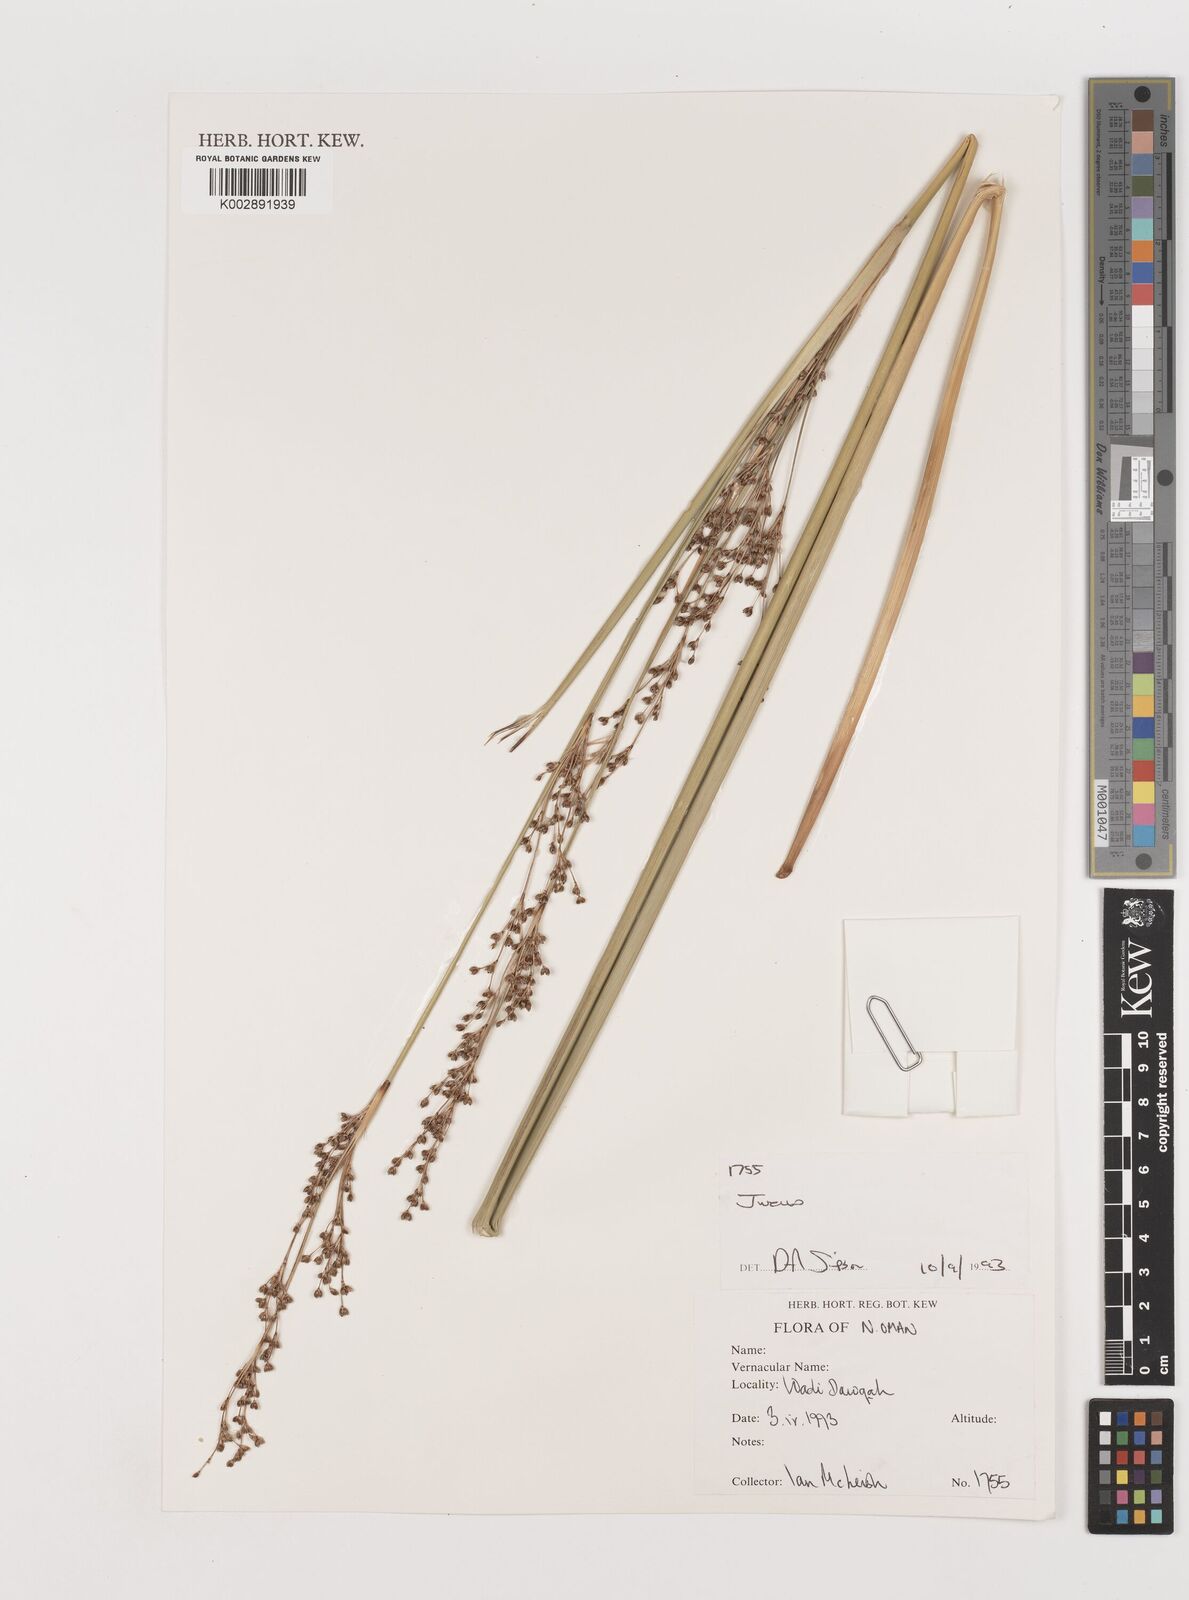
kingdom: Plantae
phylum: Tracheophyta
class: Liliopsida
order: Poales
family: Juncaceae
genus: Juncus
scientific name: Juncus
